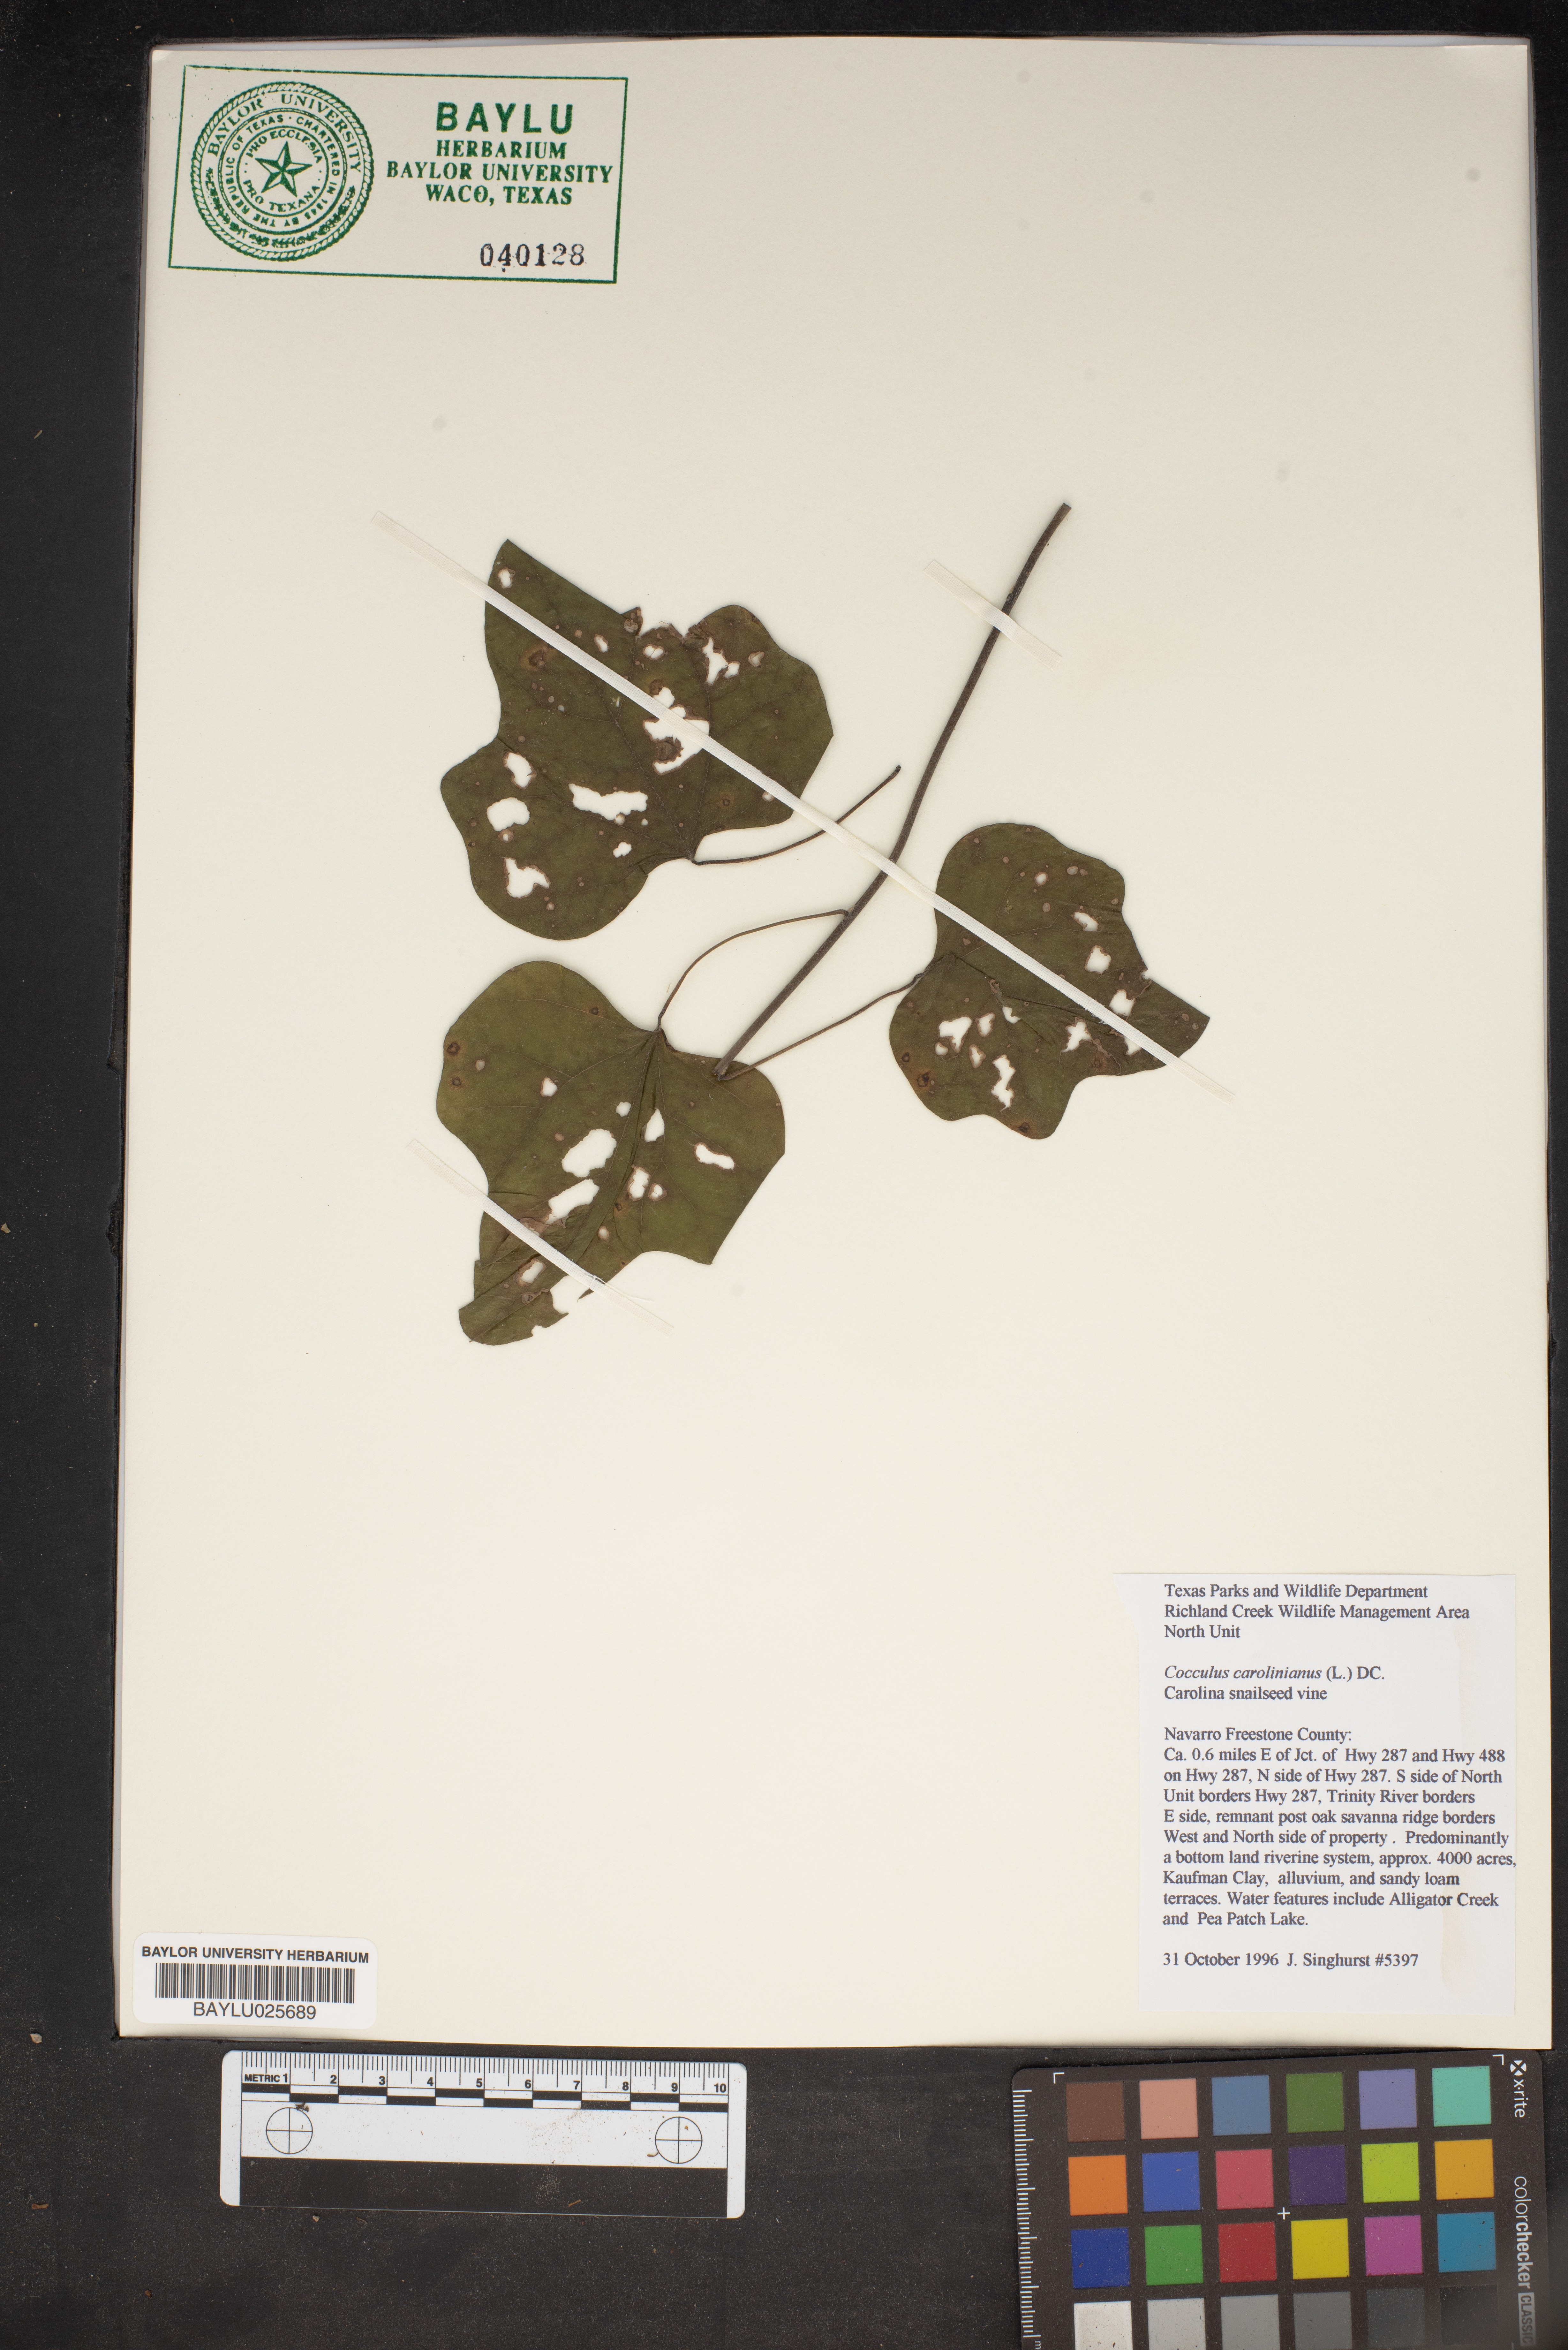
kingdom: Plantae
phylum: Tracheophyta
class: Magnoliopsida
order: Ranunculales
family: Menispermaceae
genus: Cocculus
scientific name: Cocculus carolinus
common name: Carolina moonseed
